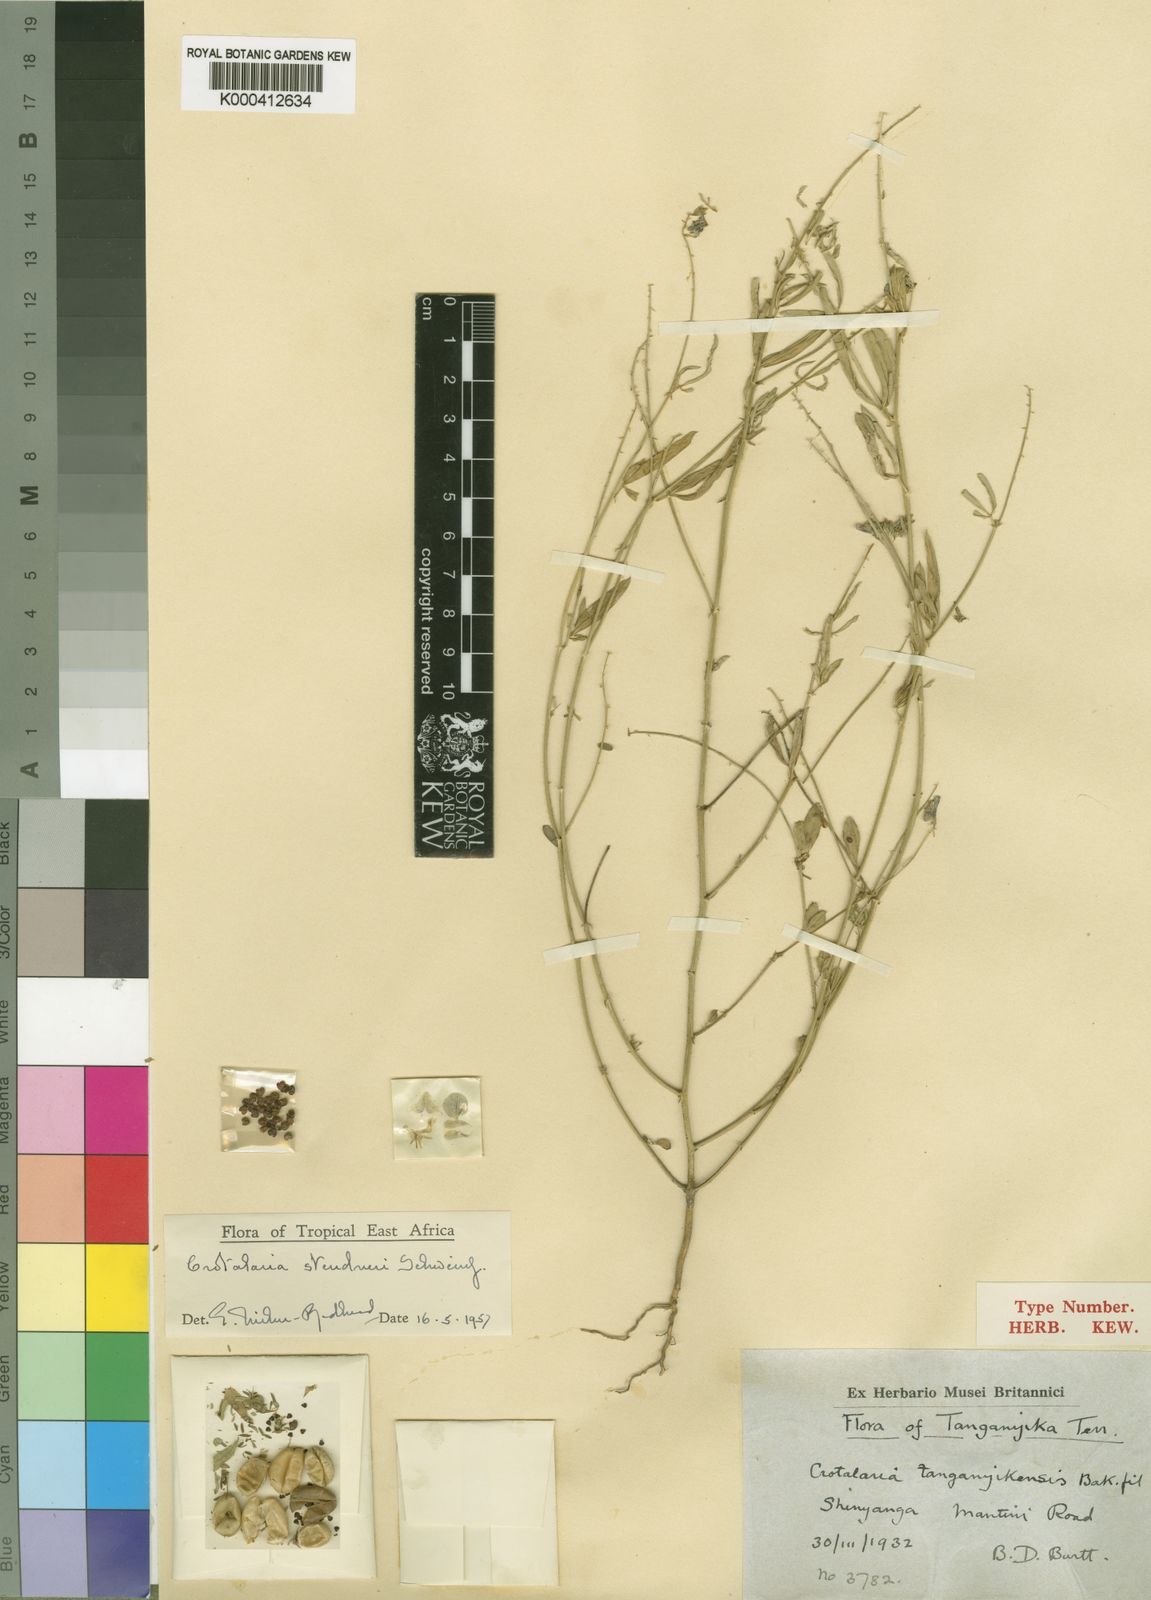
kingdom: Plantae
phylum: Tracheophyta
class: Magnoliopsida
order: Fabales
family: Fabaceae
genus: Crotalaria
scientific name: Crotalaria steudneri
